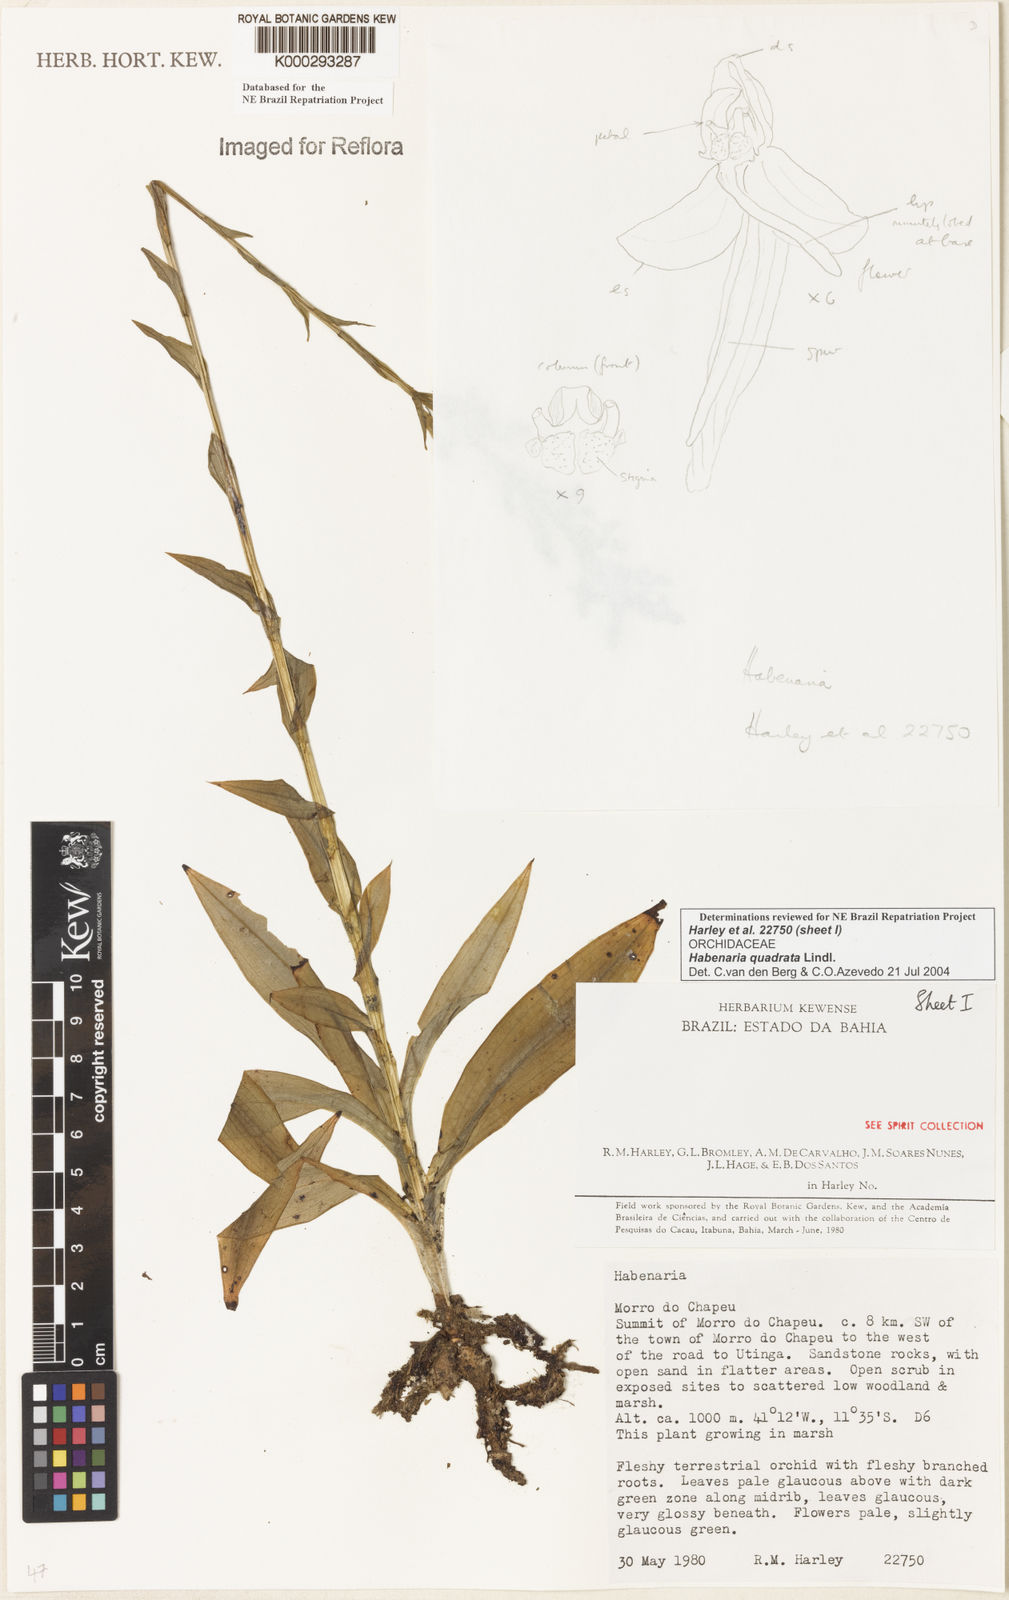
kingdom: Plantae
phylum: Tracheophyta
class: Liliopsida
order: Asparagales
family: Orchidaceae
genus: Habenaria
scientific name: Habenaria quadrata
